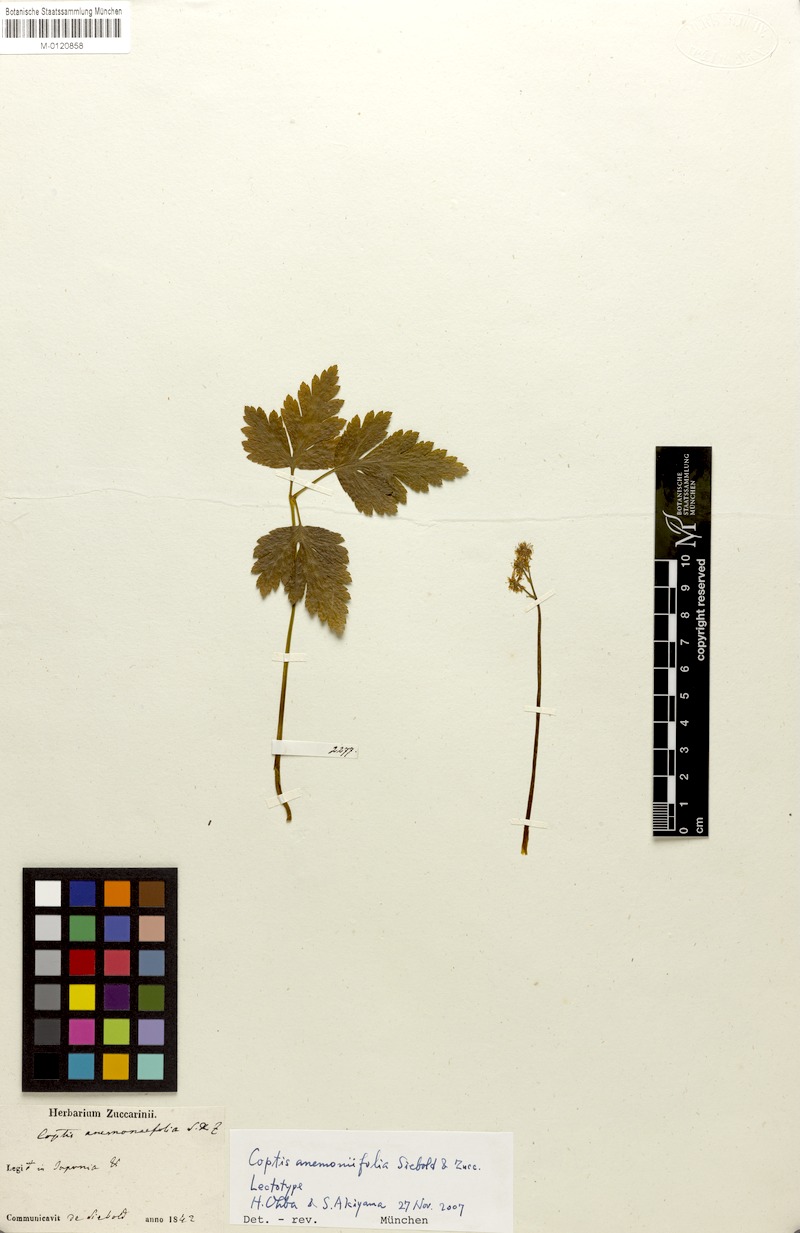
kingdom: Plantae
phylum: Tracheophyta
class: Magnoliopsida
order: Ranunculales
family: Ranunculaceae
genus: Coptis
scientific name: Coptis japonica
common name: Japanese goldthread
